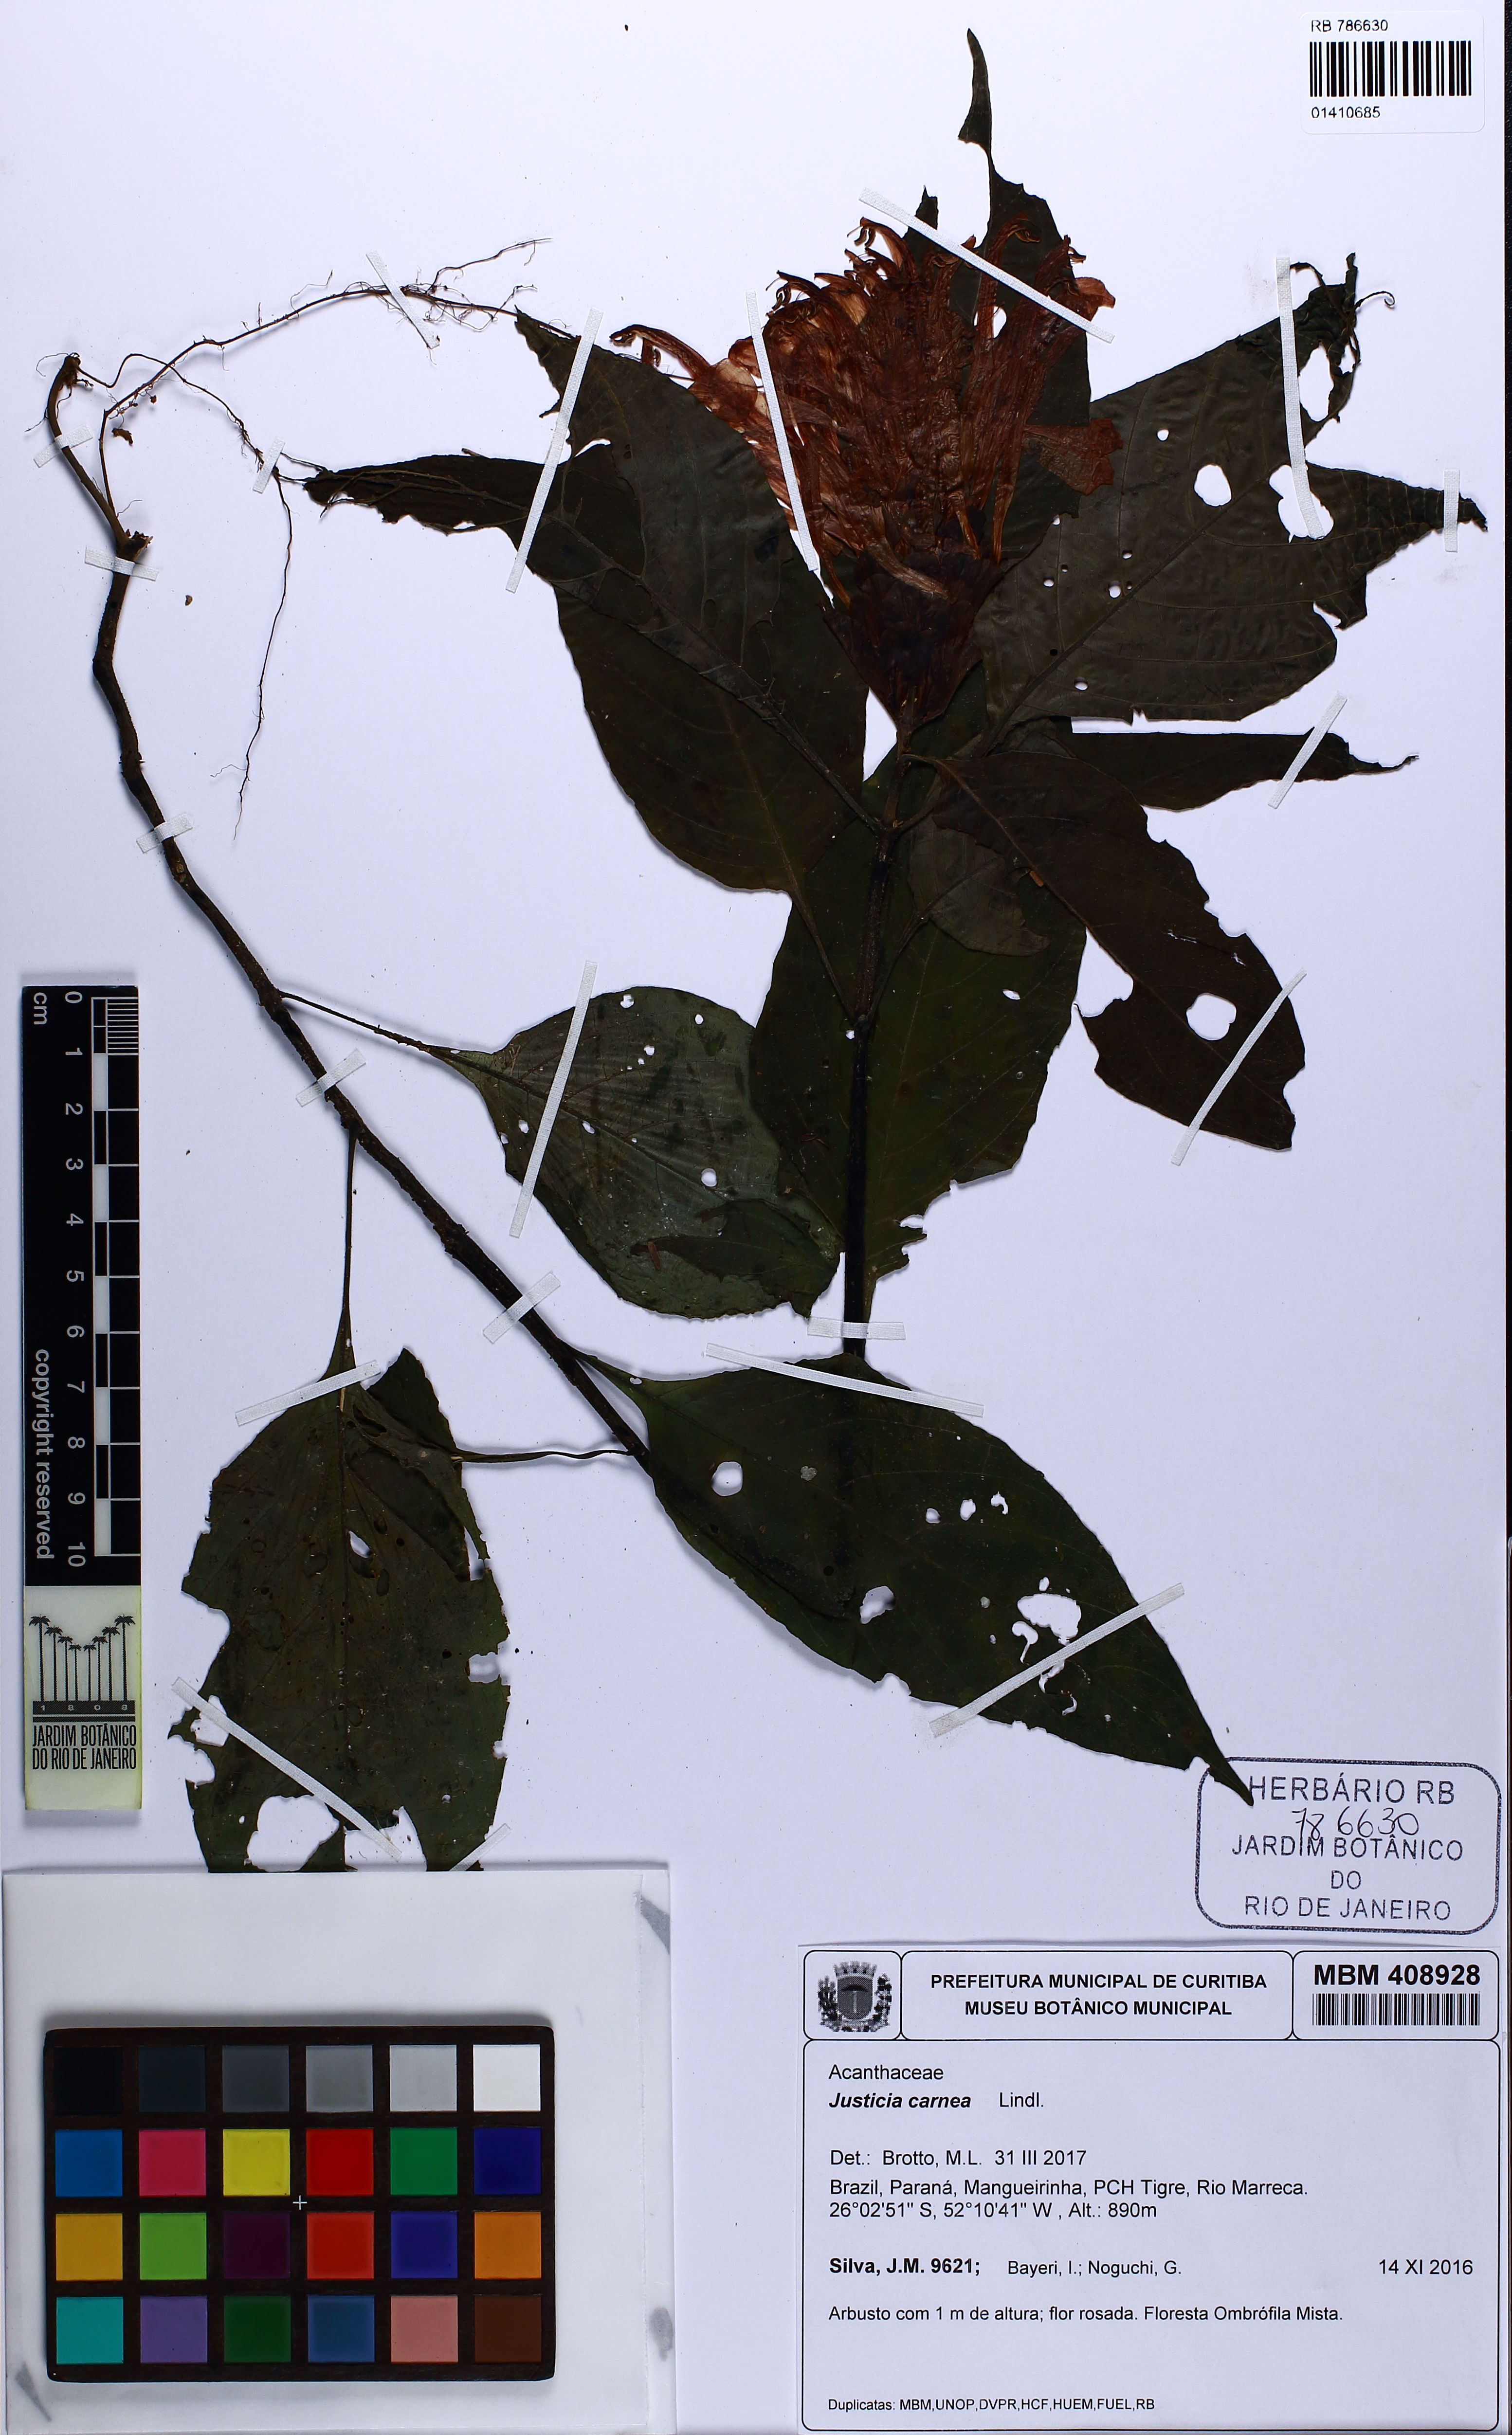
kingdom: Plantae
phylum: Tracheophyta
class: Magnoliopsida
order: Lamiales
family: Acanthaceae
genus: Justicia
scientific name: Justicia carnea
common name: Brazilian-plume
